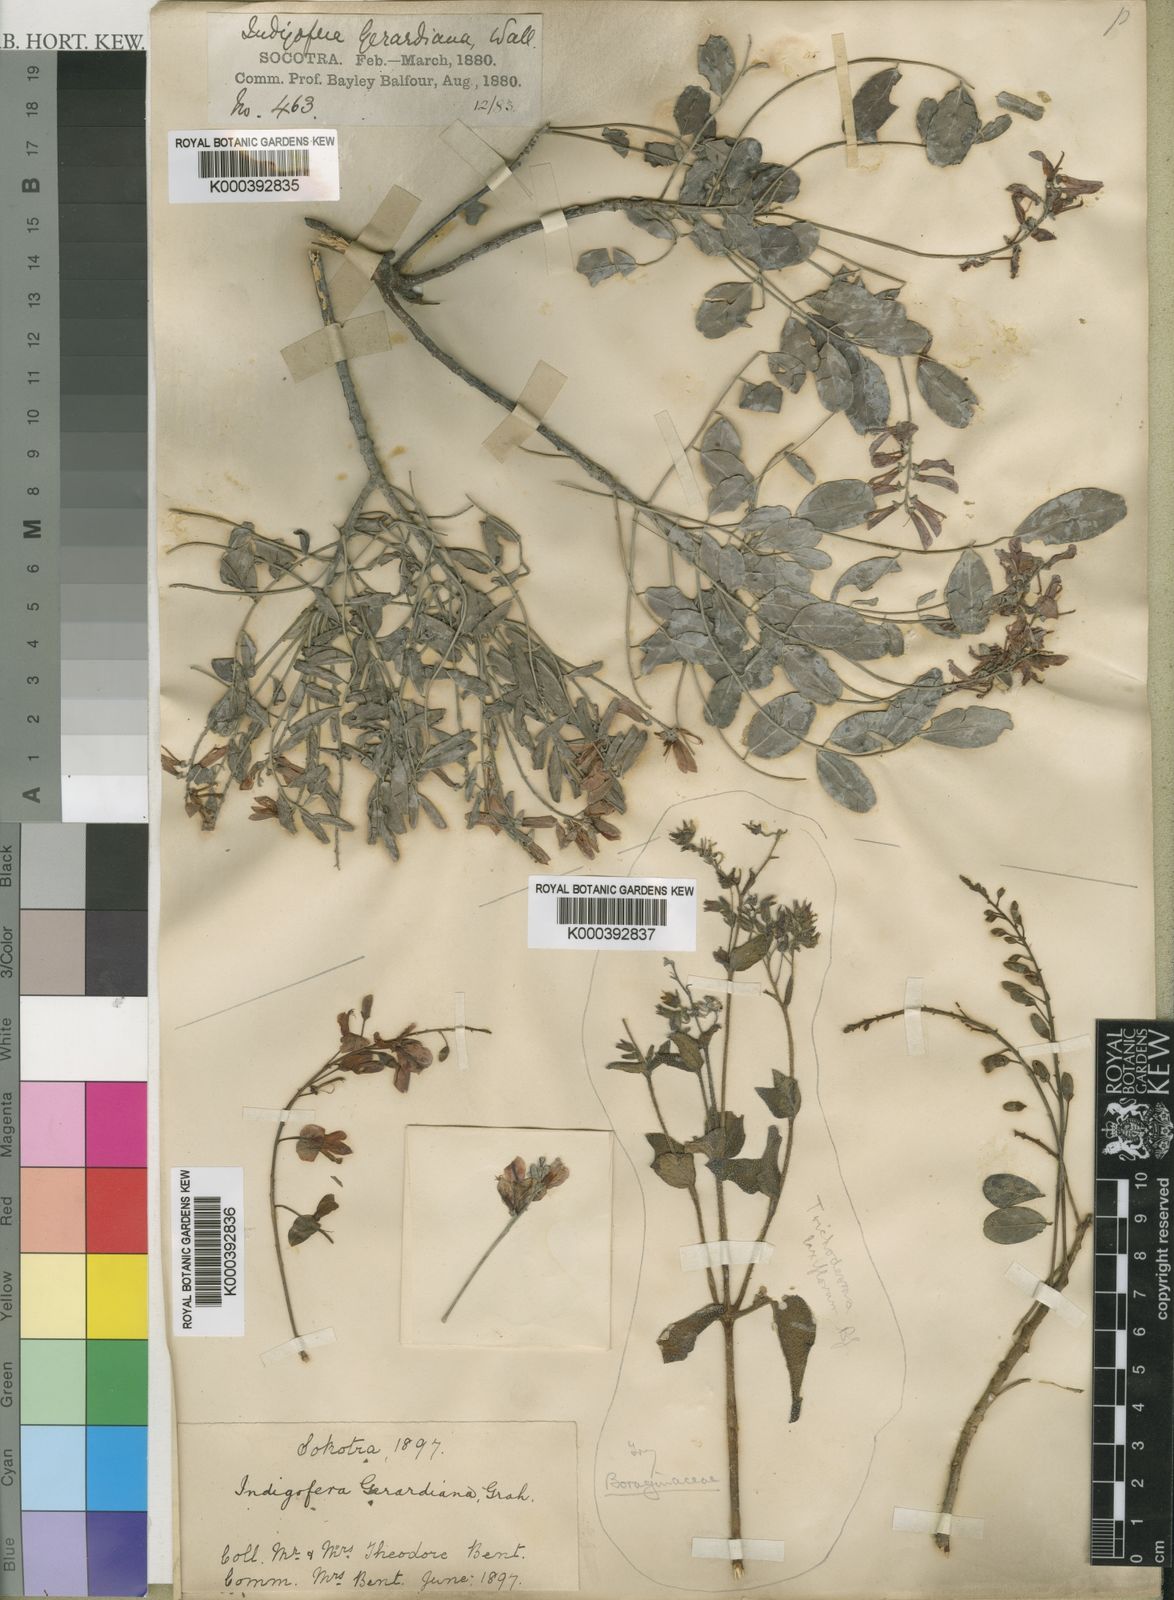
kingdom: Plantae
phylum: Tracheophyta
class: Magnoliopsida
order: Fabales
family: Fabaceae
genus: Indigofera
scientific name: Indigofera sokotrana
